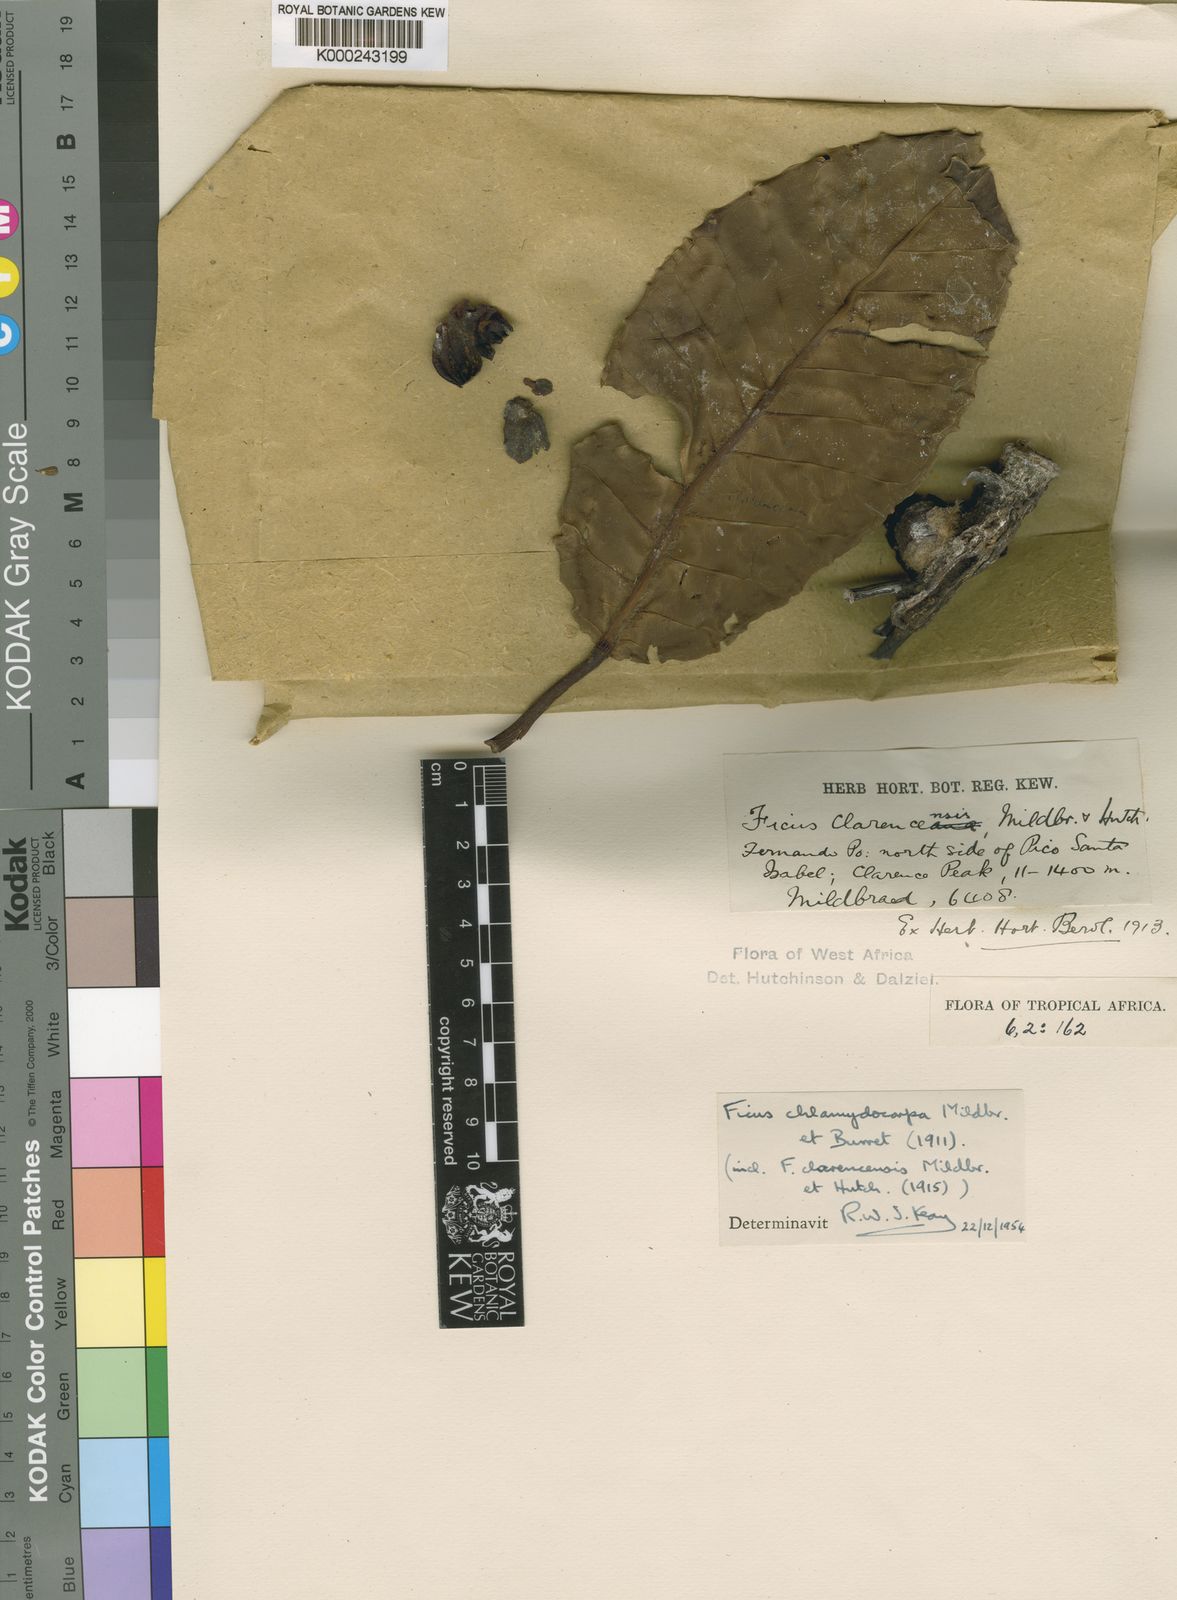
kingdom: Plantae
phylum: Tracheophyta
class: Magnoliopsida
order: Rosales
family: Moraceae
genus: Ficus
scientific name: Ficus chlamydocarpa
